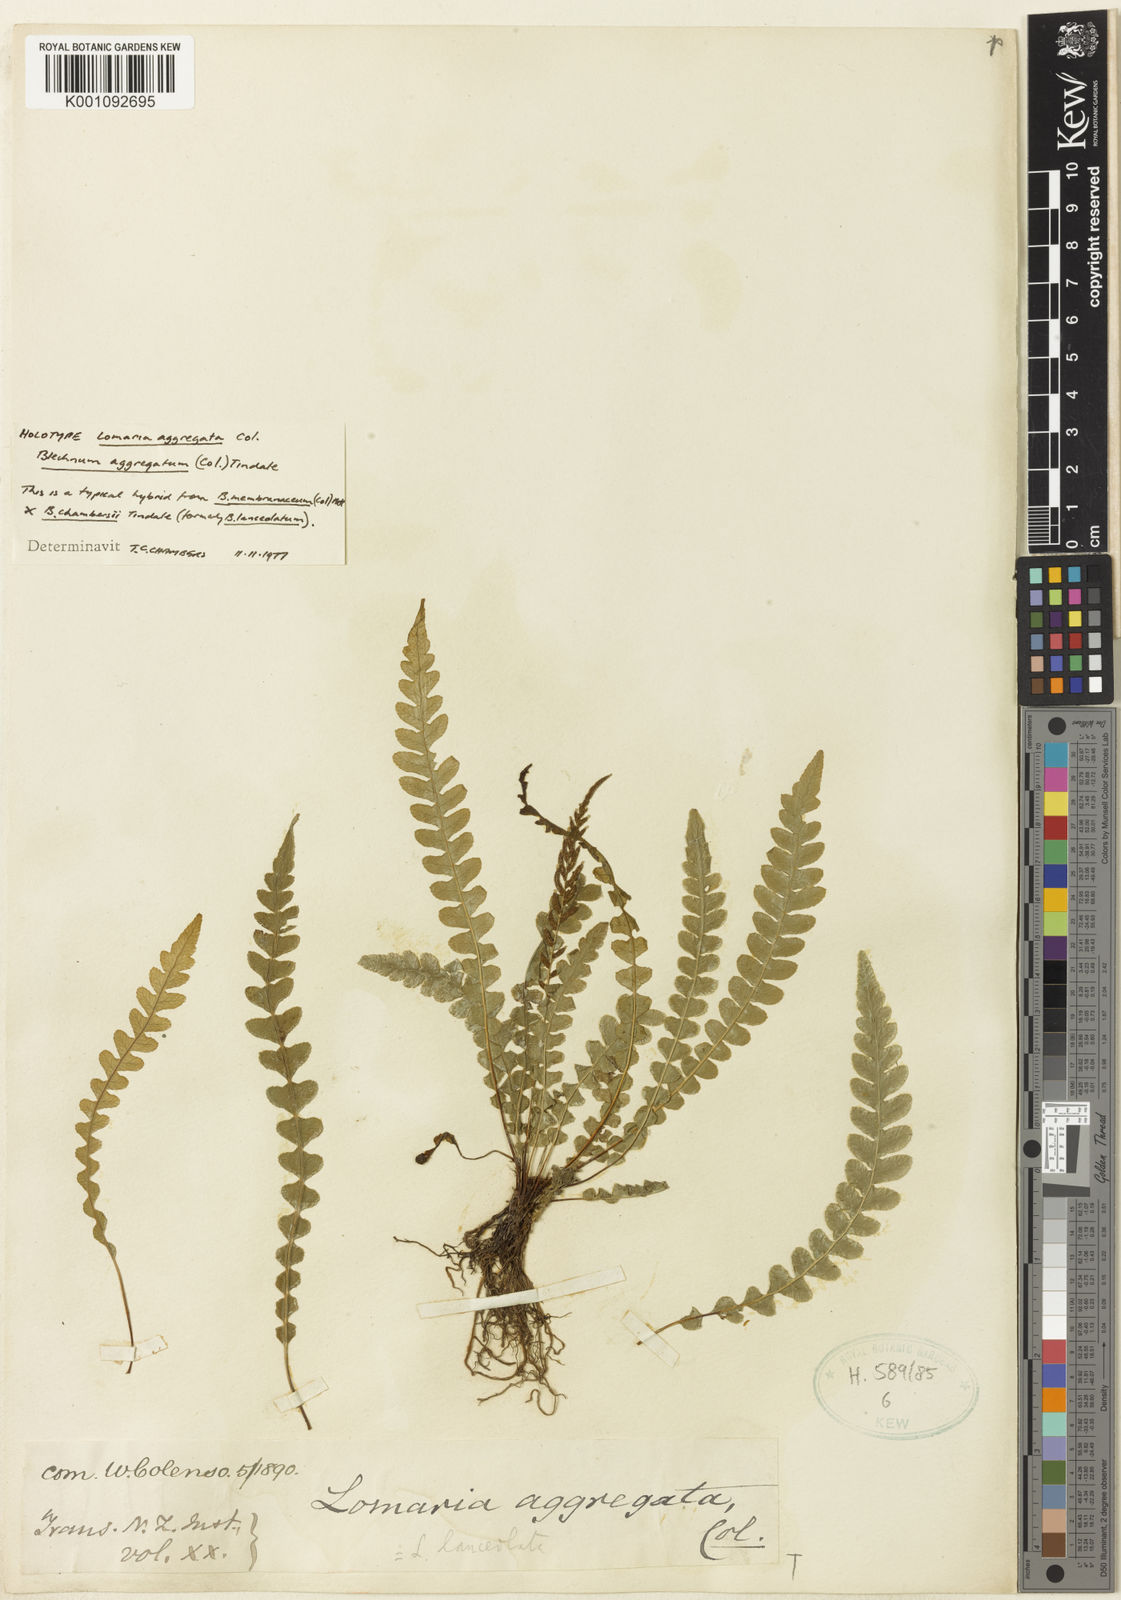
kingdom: Plantae
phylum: Tracheophyta
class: Polypodiopsida
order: Polypodiales
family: Blechnaceae
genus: Austroblechnum
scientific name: Austroblechnum lanceolatum
